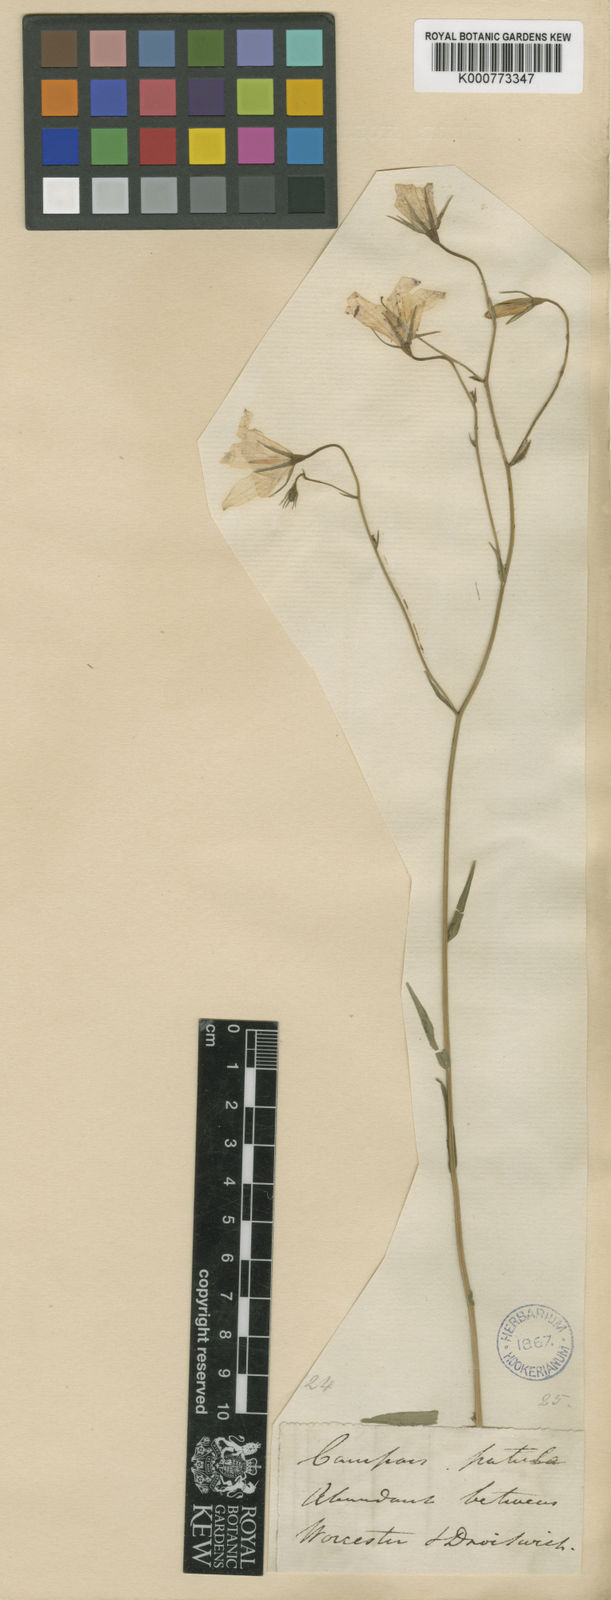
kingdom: Plantae
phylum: Tracheophyta
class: Magnoliopsida
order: Asterales
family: Campanulaceae
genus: Campanula
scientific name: Campanula patula
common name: Spreading bellflower
